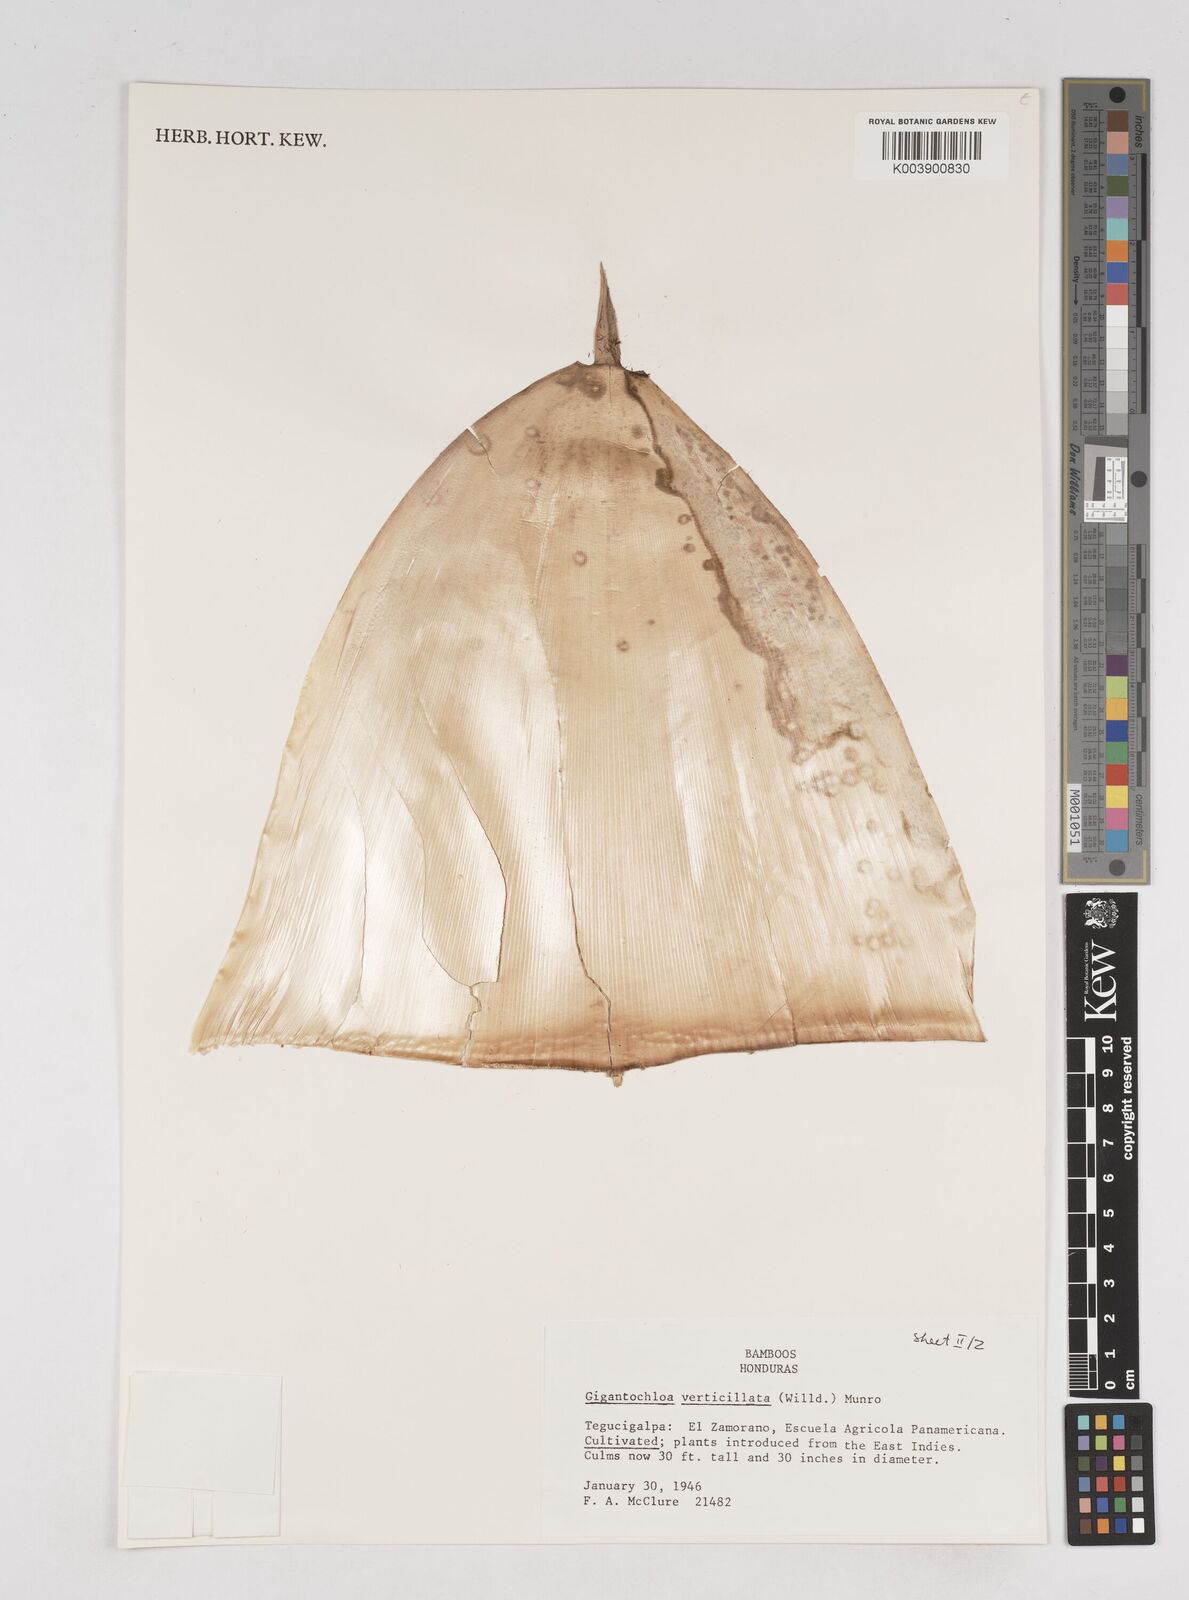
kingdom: Plantae
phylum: Tracheophyta
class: Liliopsida
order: Poales
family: Poaceae
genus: Gigantochloa
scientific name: Gigantochloa verticillata
